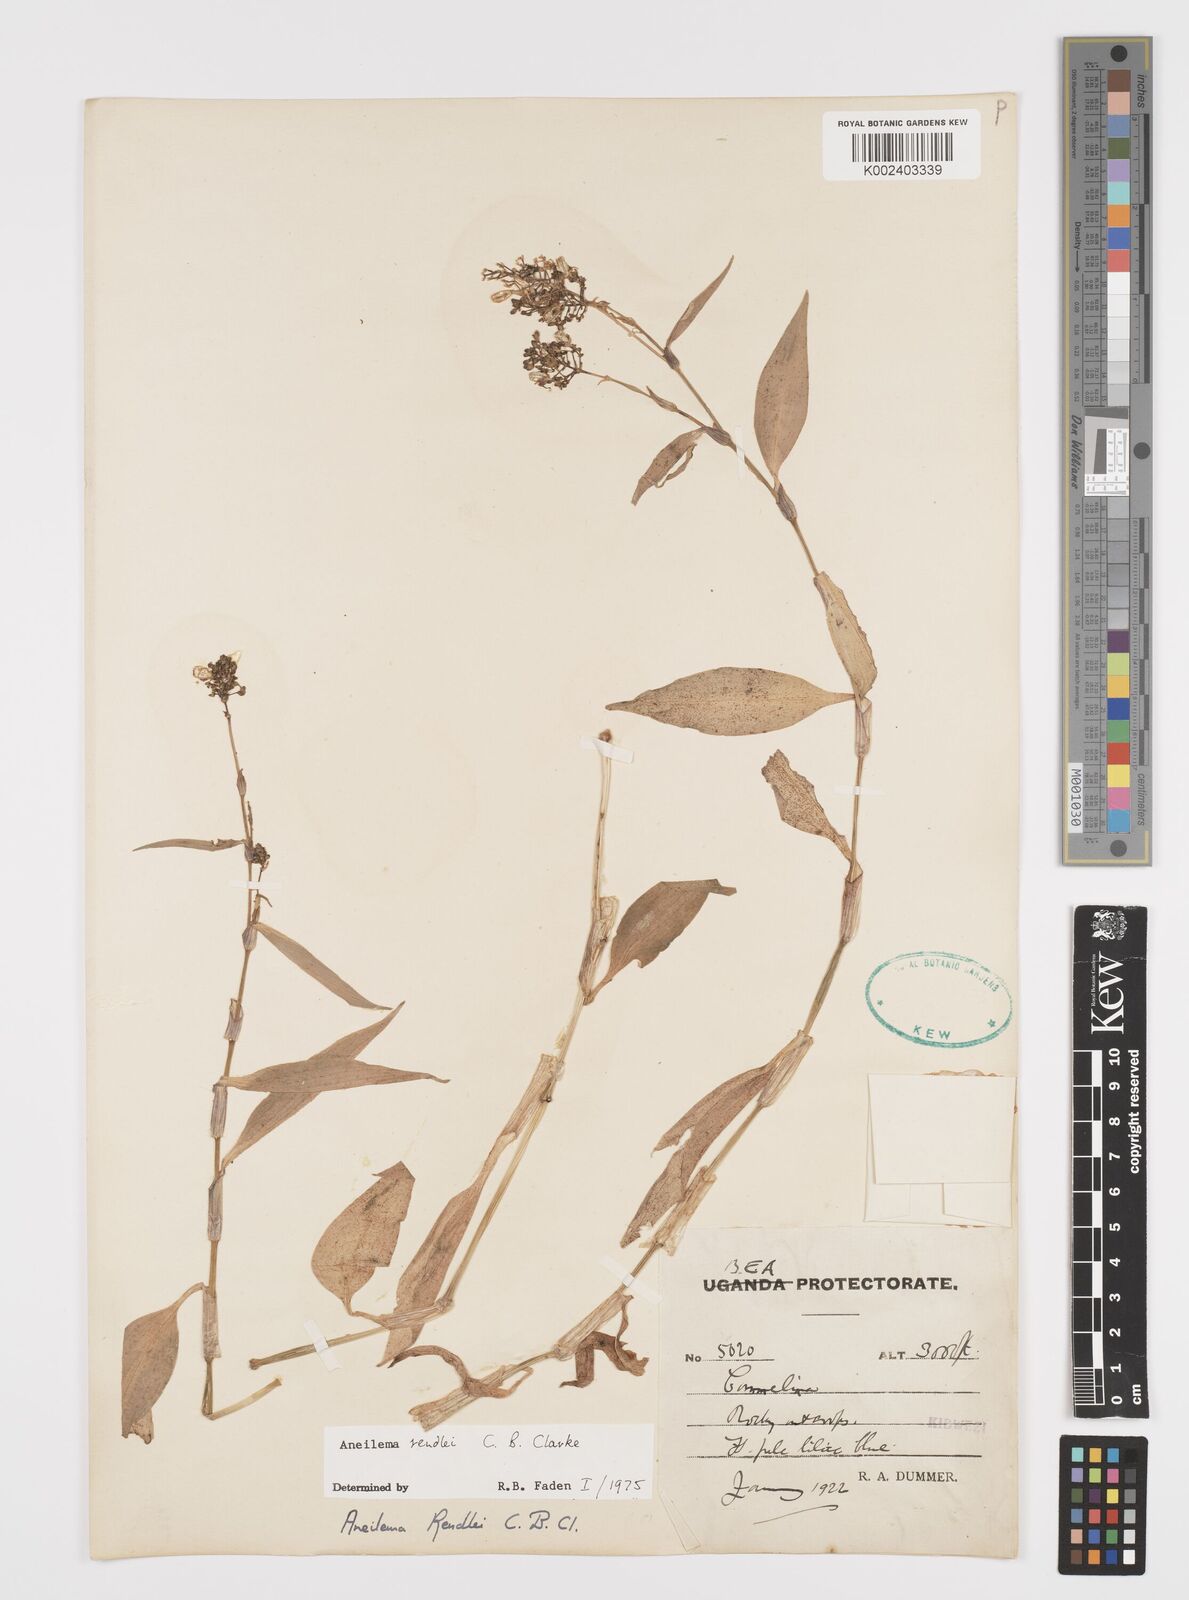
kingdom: Plantae
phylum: Tracheophyta
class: Liliopsida
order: Commelinales
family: Commelinaceae
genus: Aneilema
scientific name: Aneilema rendlei
